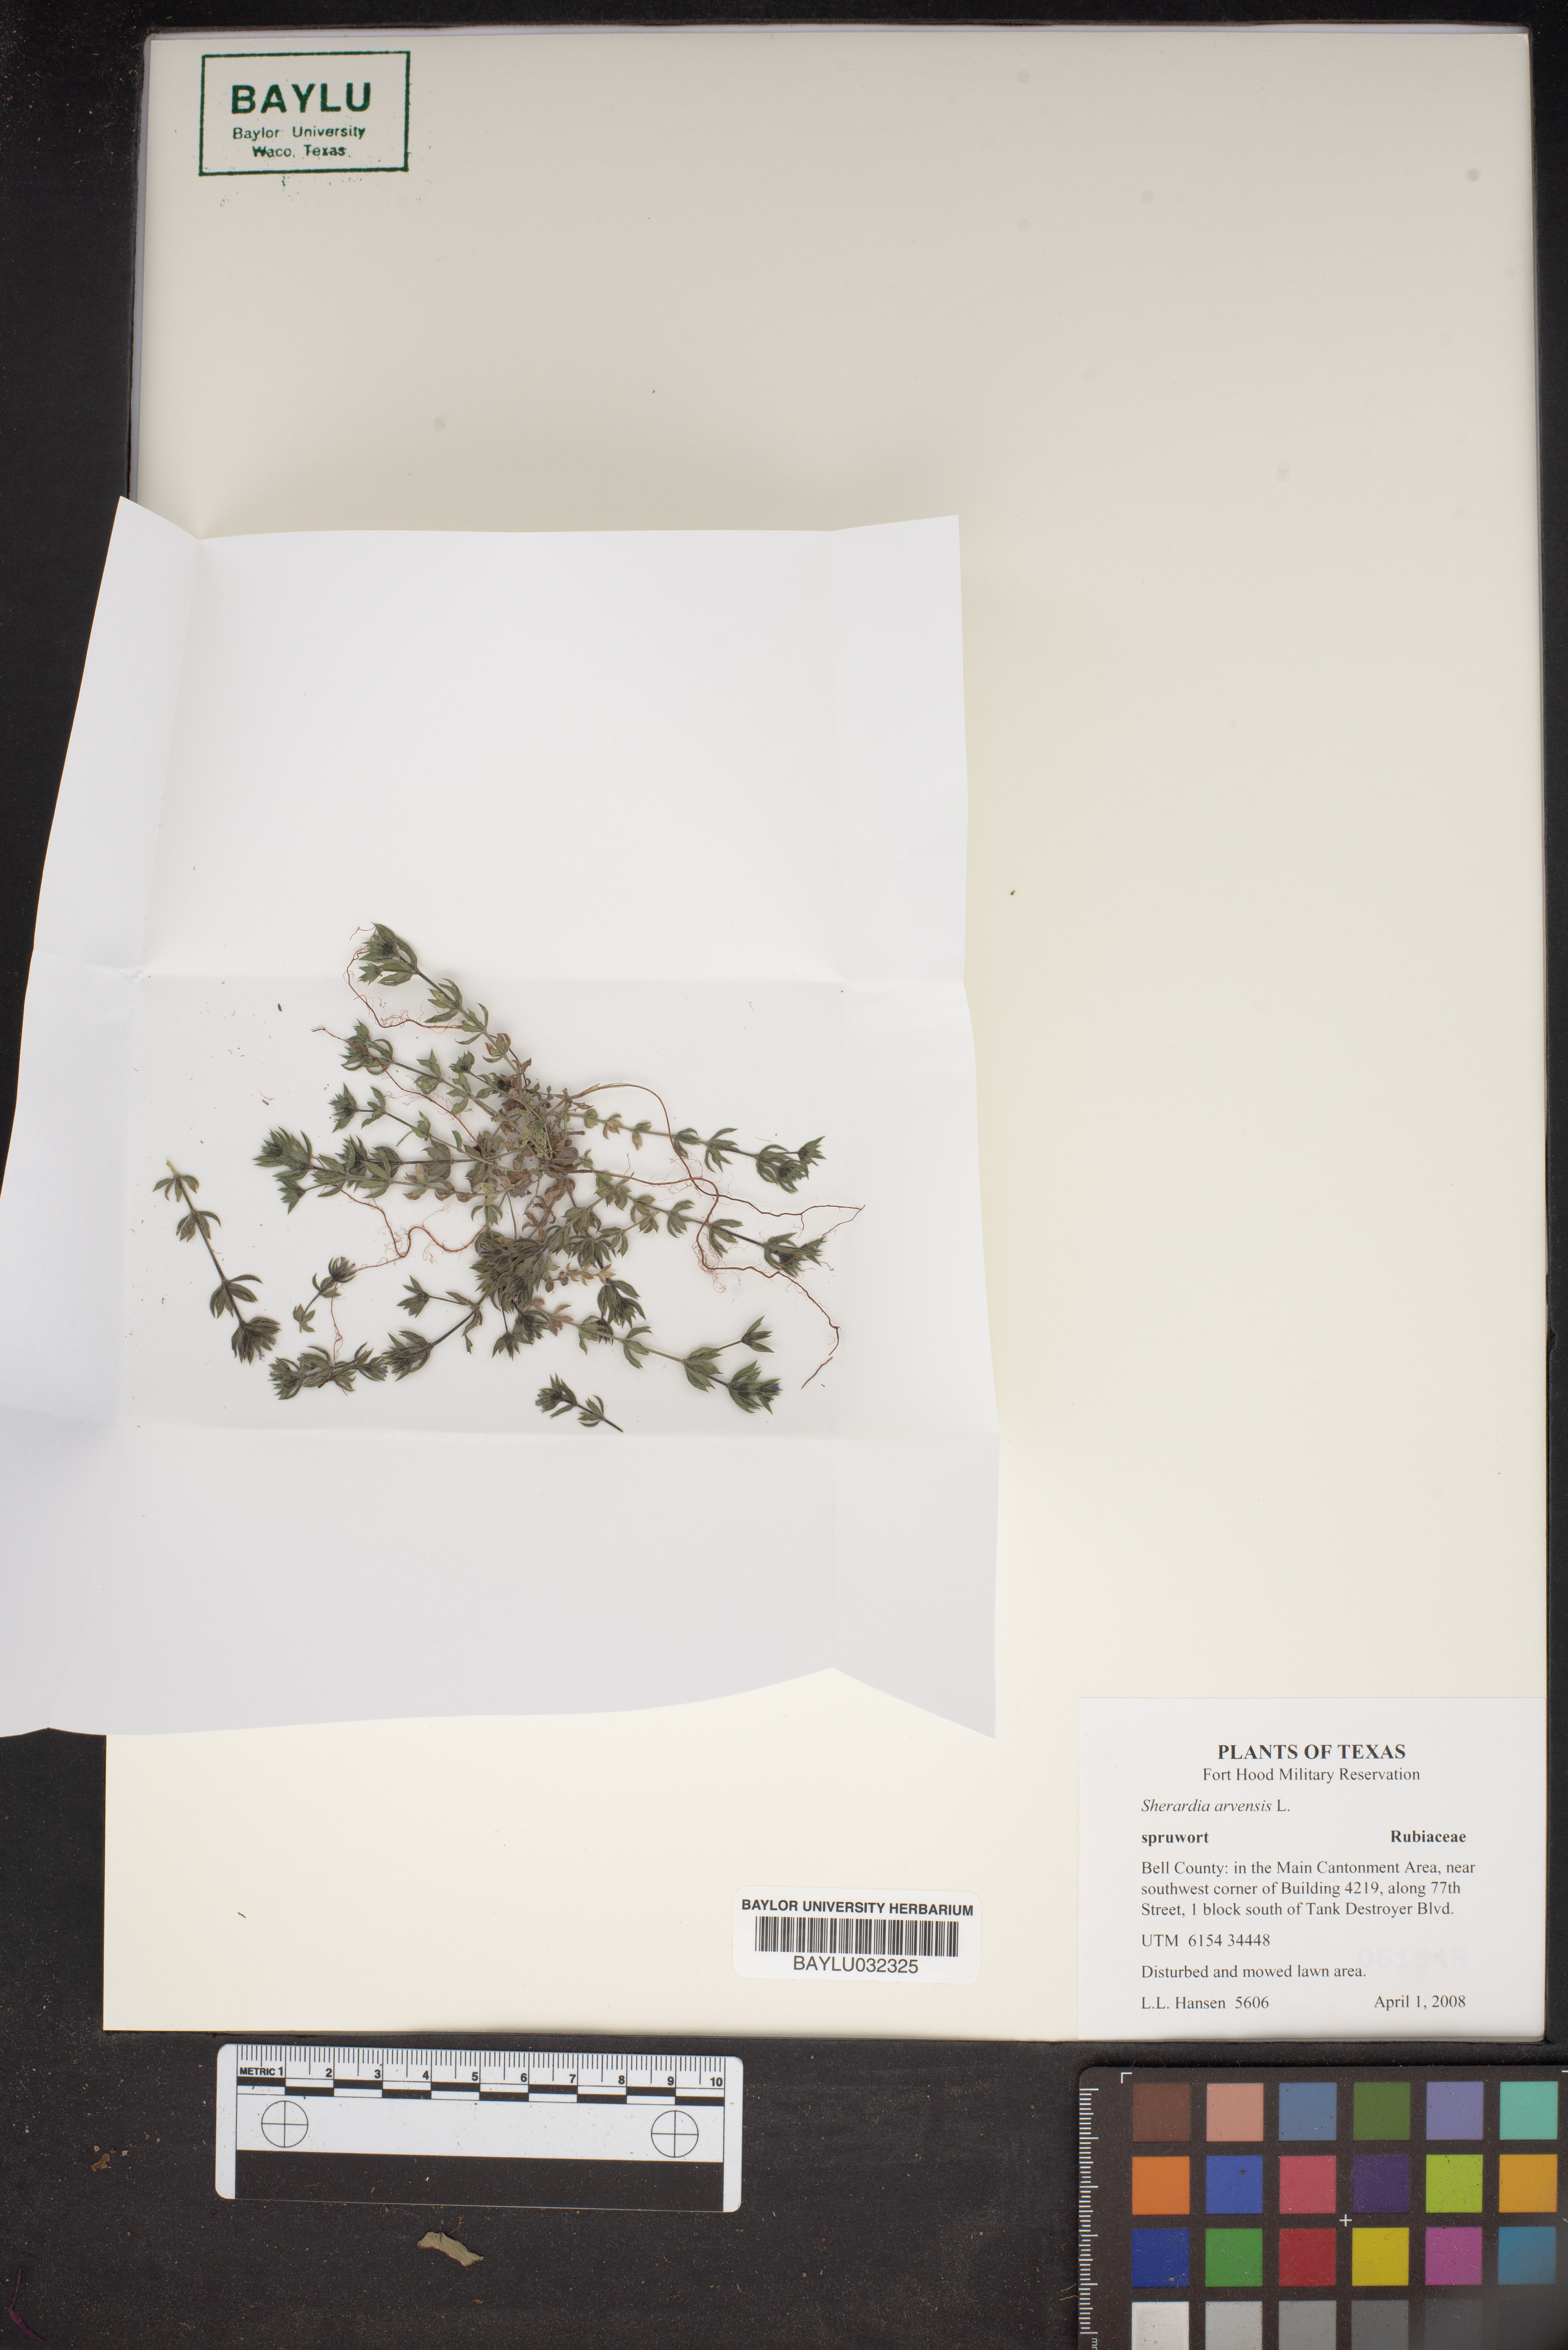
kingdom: Plantae
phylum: Tracheophyta
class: Magnoliopsida
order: Gentianales
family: Rubiaceae
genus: Sherardia
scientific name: Sherardia arvensis
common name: Field madder
